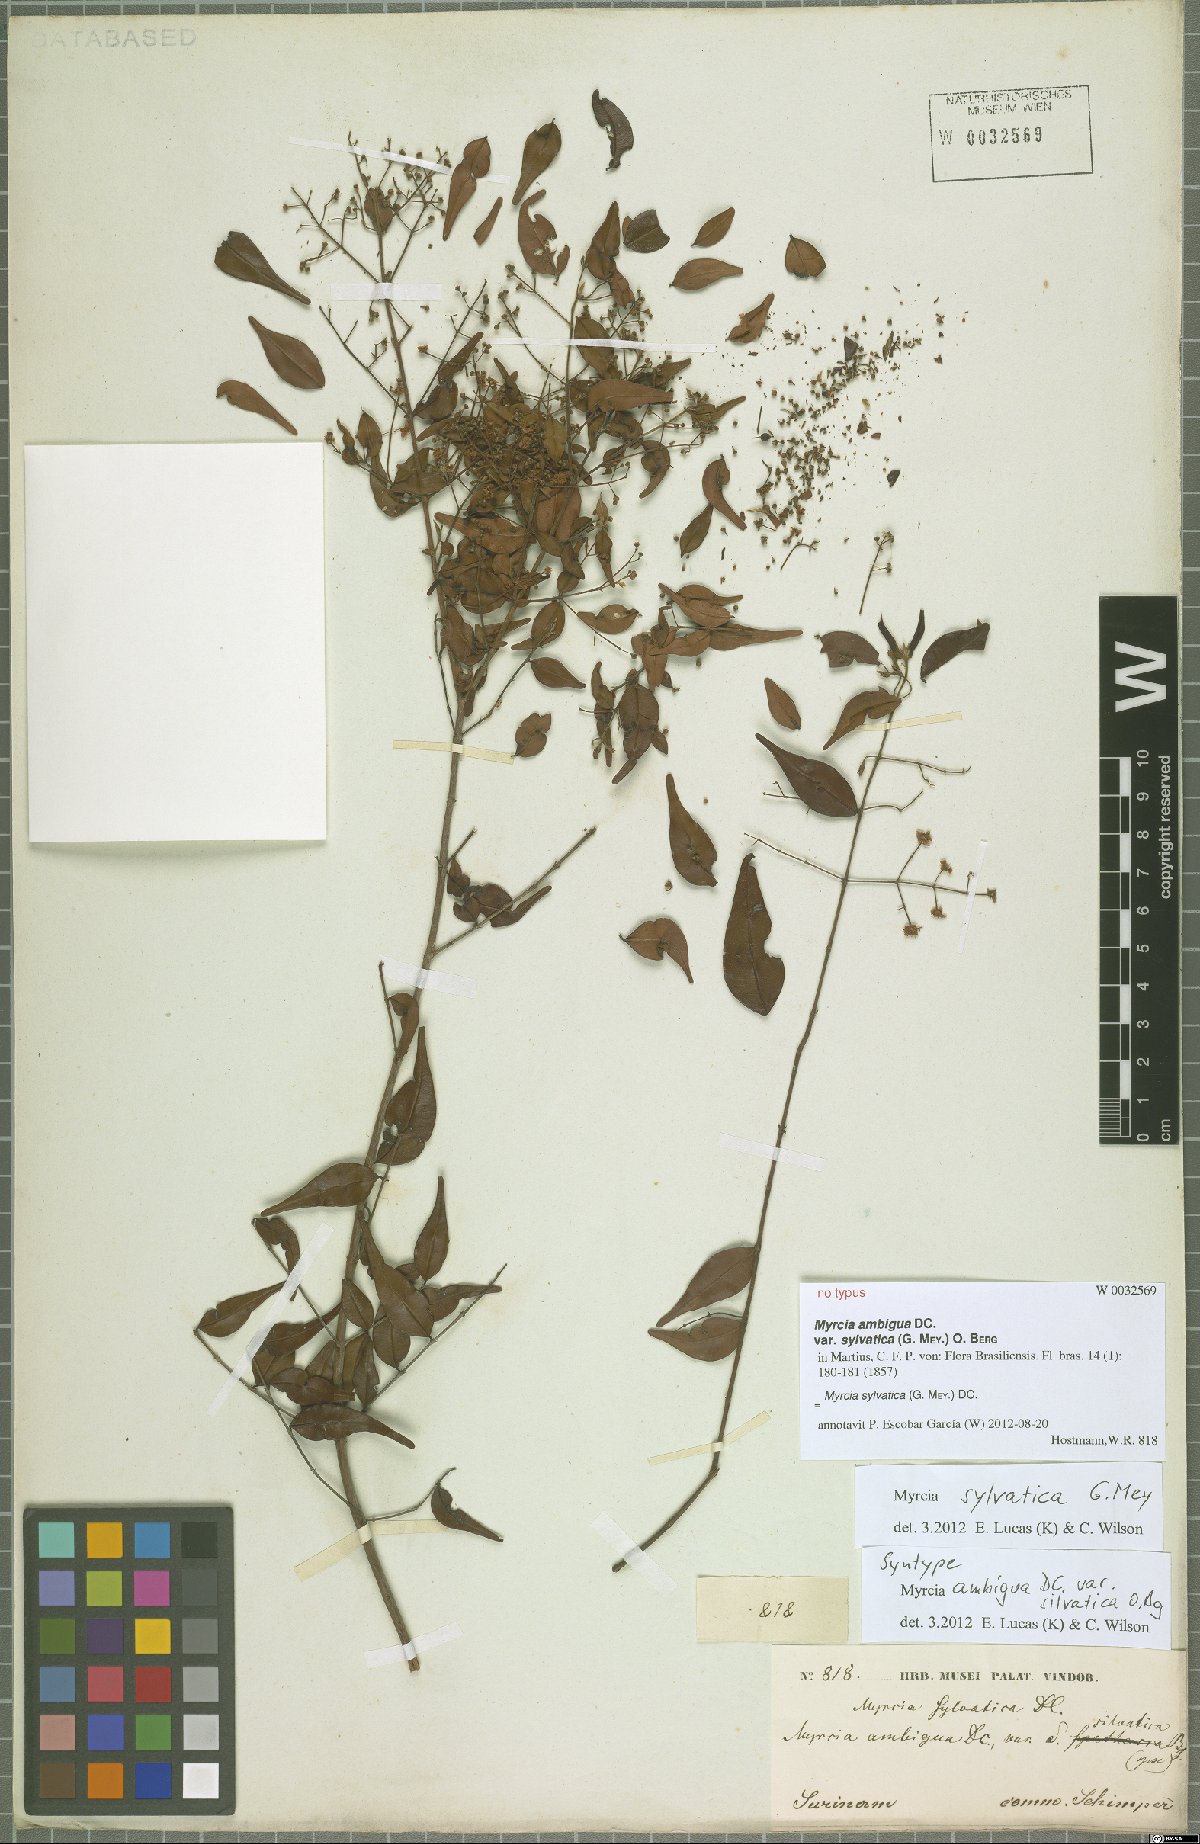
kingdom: Plantae
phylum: Tracheophyta
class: Magnoliopsida
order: Myrtales
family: Myrtaceae
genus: Myrcia
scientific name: Myrcia sylvatica
